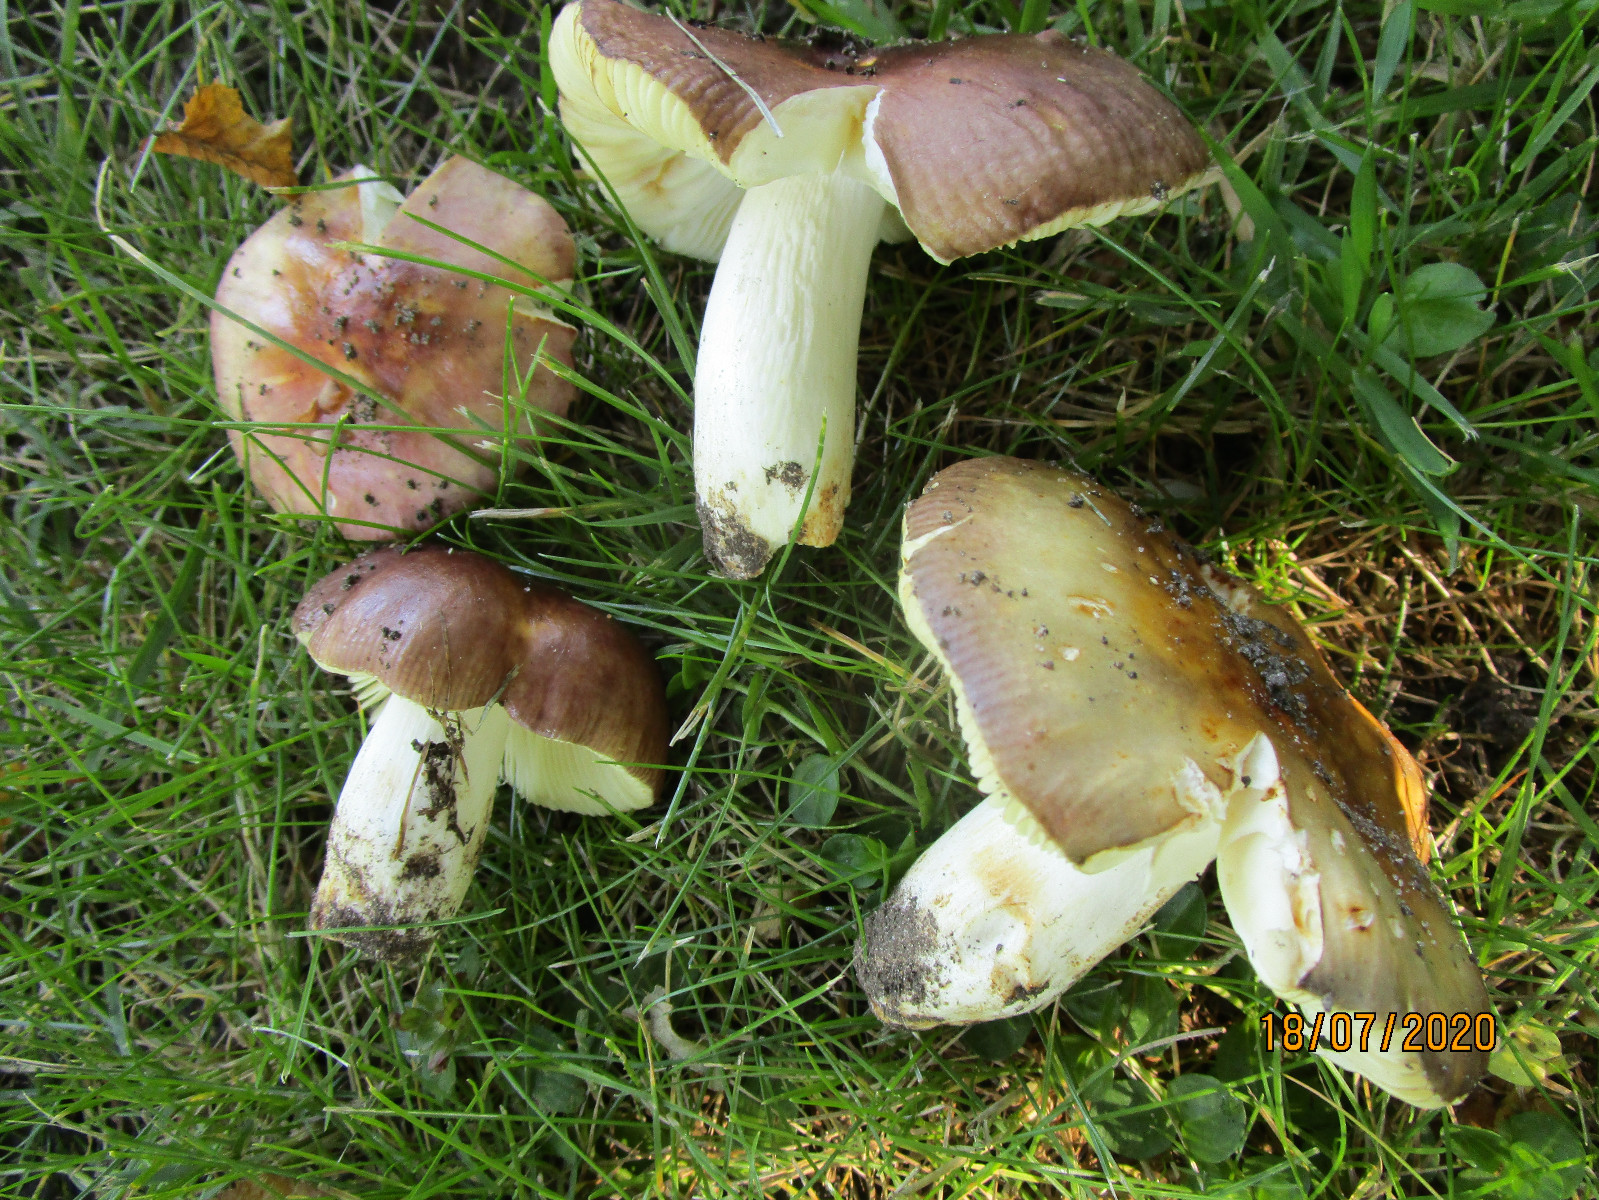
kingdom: Fungi
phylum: Basidiomycota
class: Agaricomycetes
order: Russulales
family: Russulaceae
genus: Russula
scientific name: Russula carpini
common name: avnbøg-skørhat
